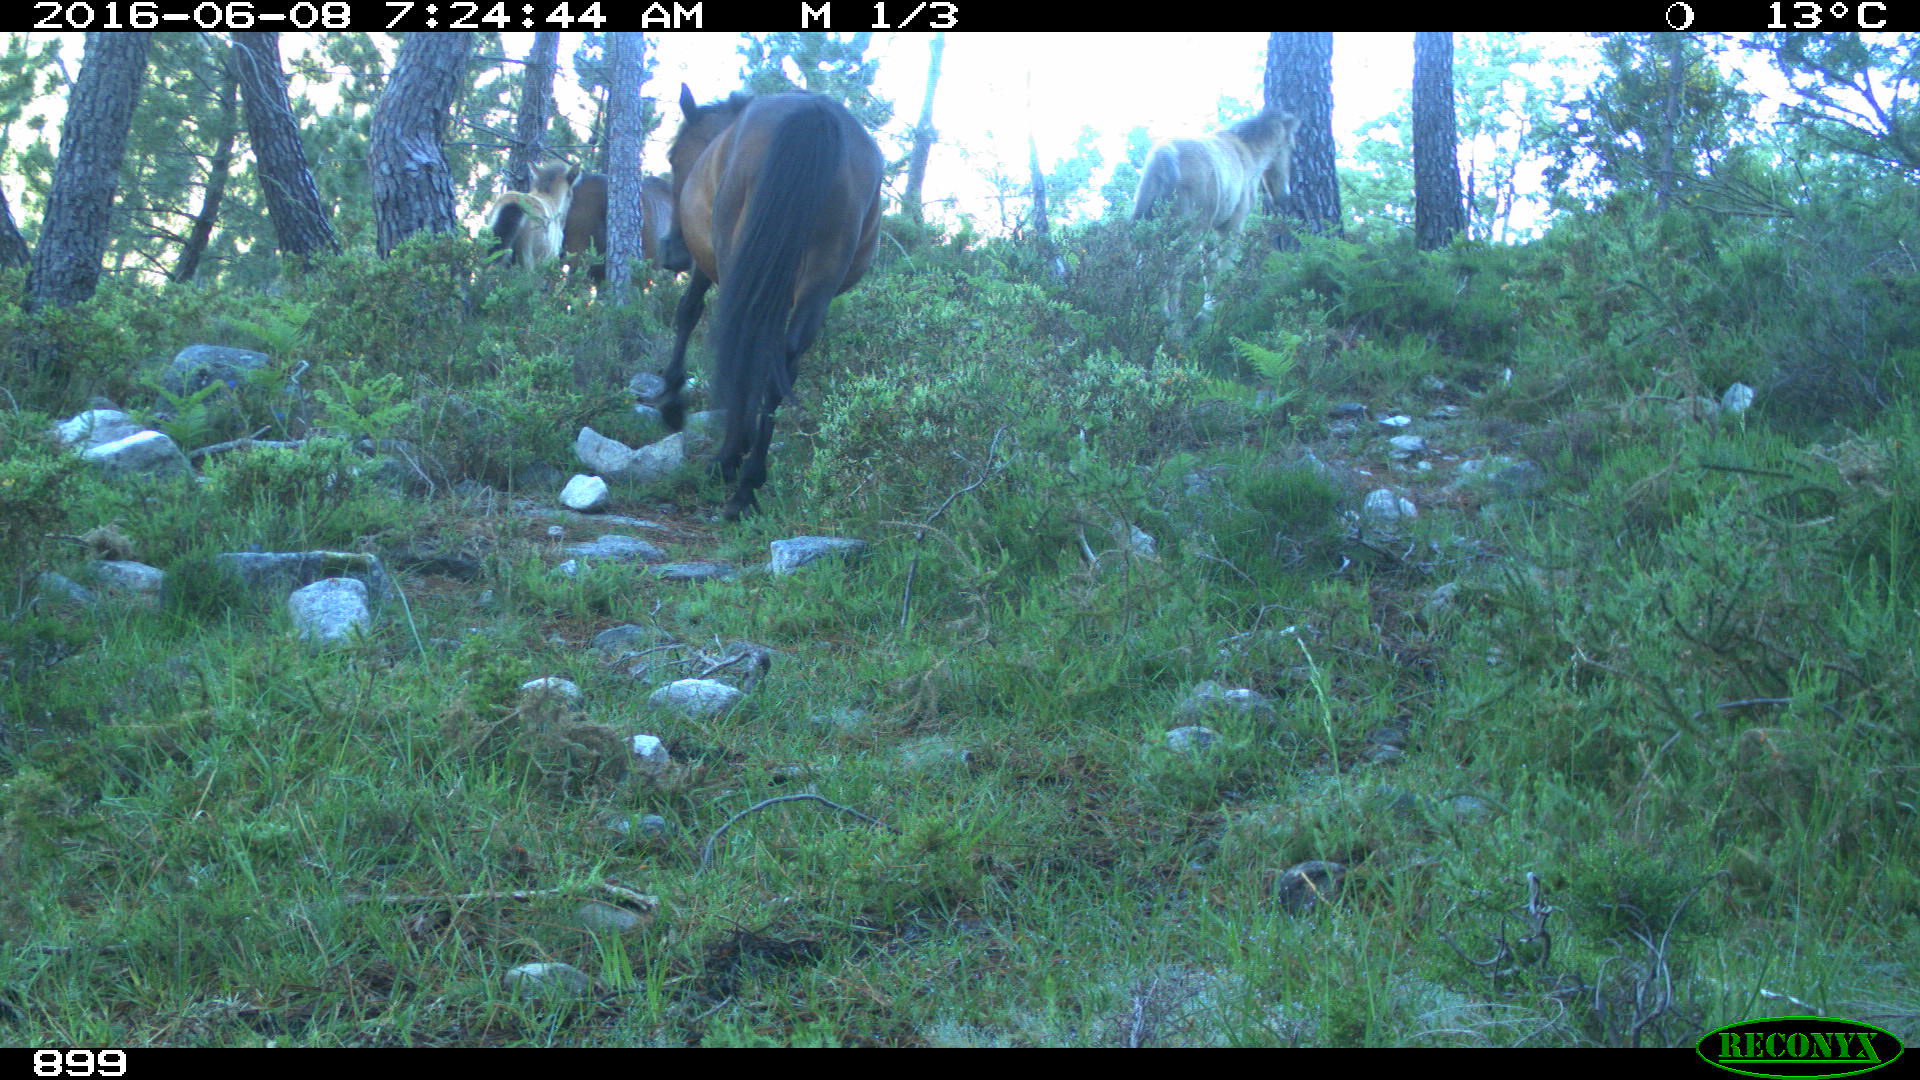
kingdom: Animalia
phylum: Chordata
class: Mammalia
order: Perissodactyla
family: Equidae
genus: Equus
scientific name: Equus caballus
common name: Horse
